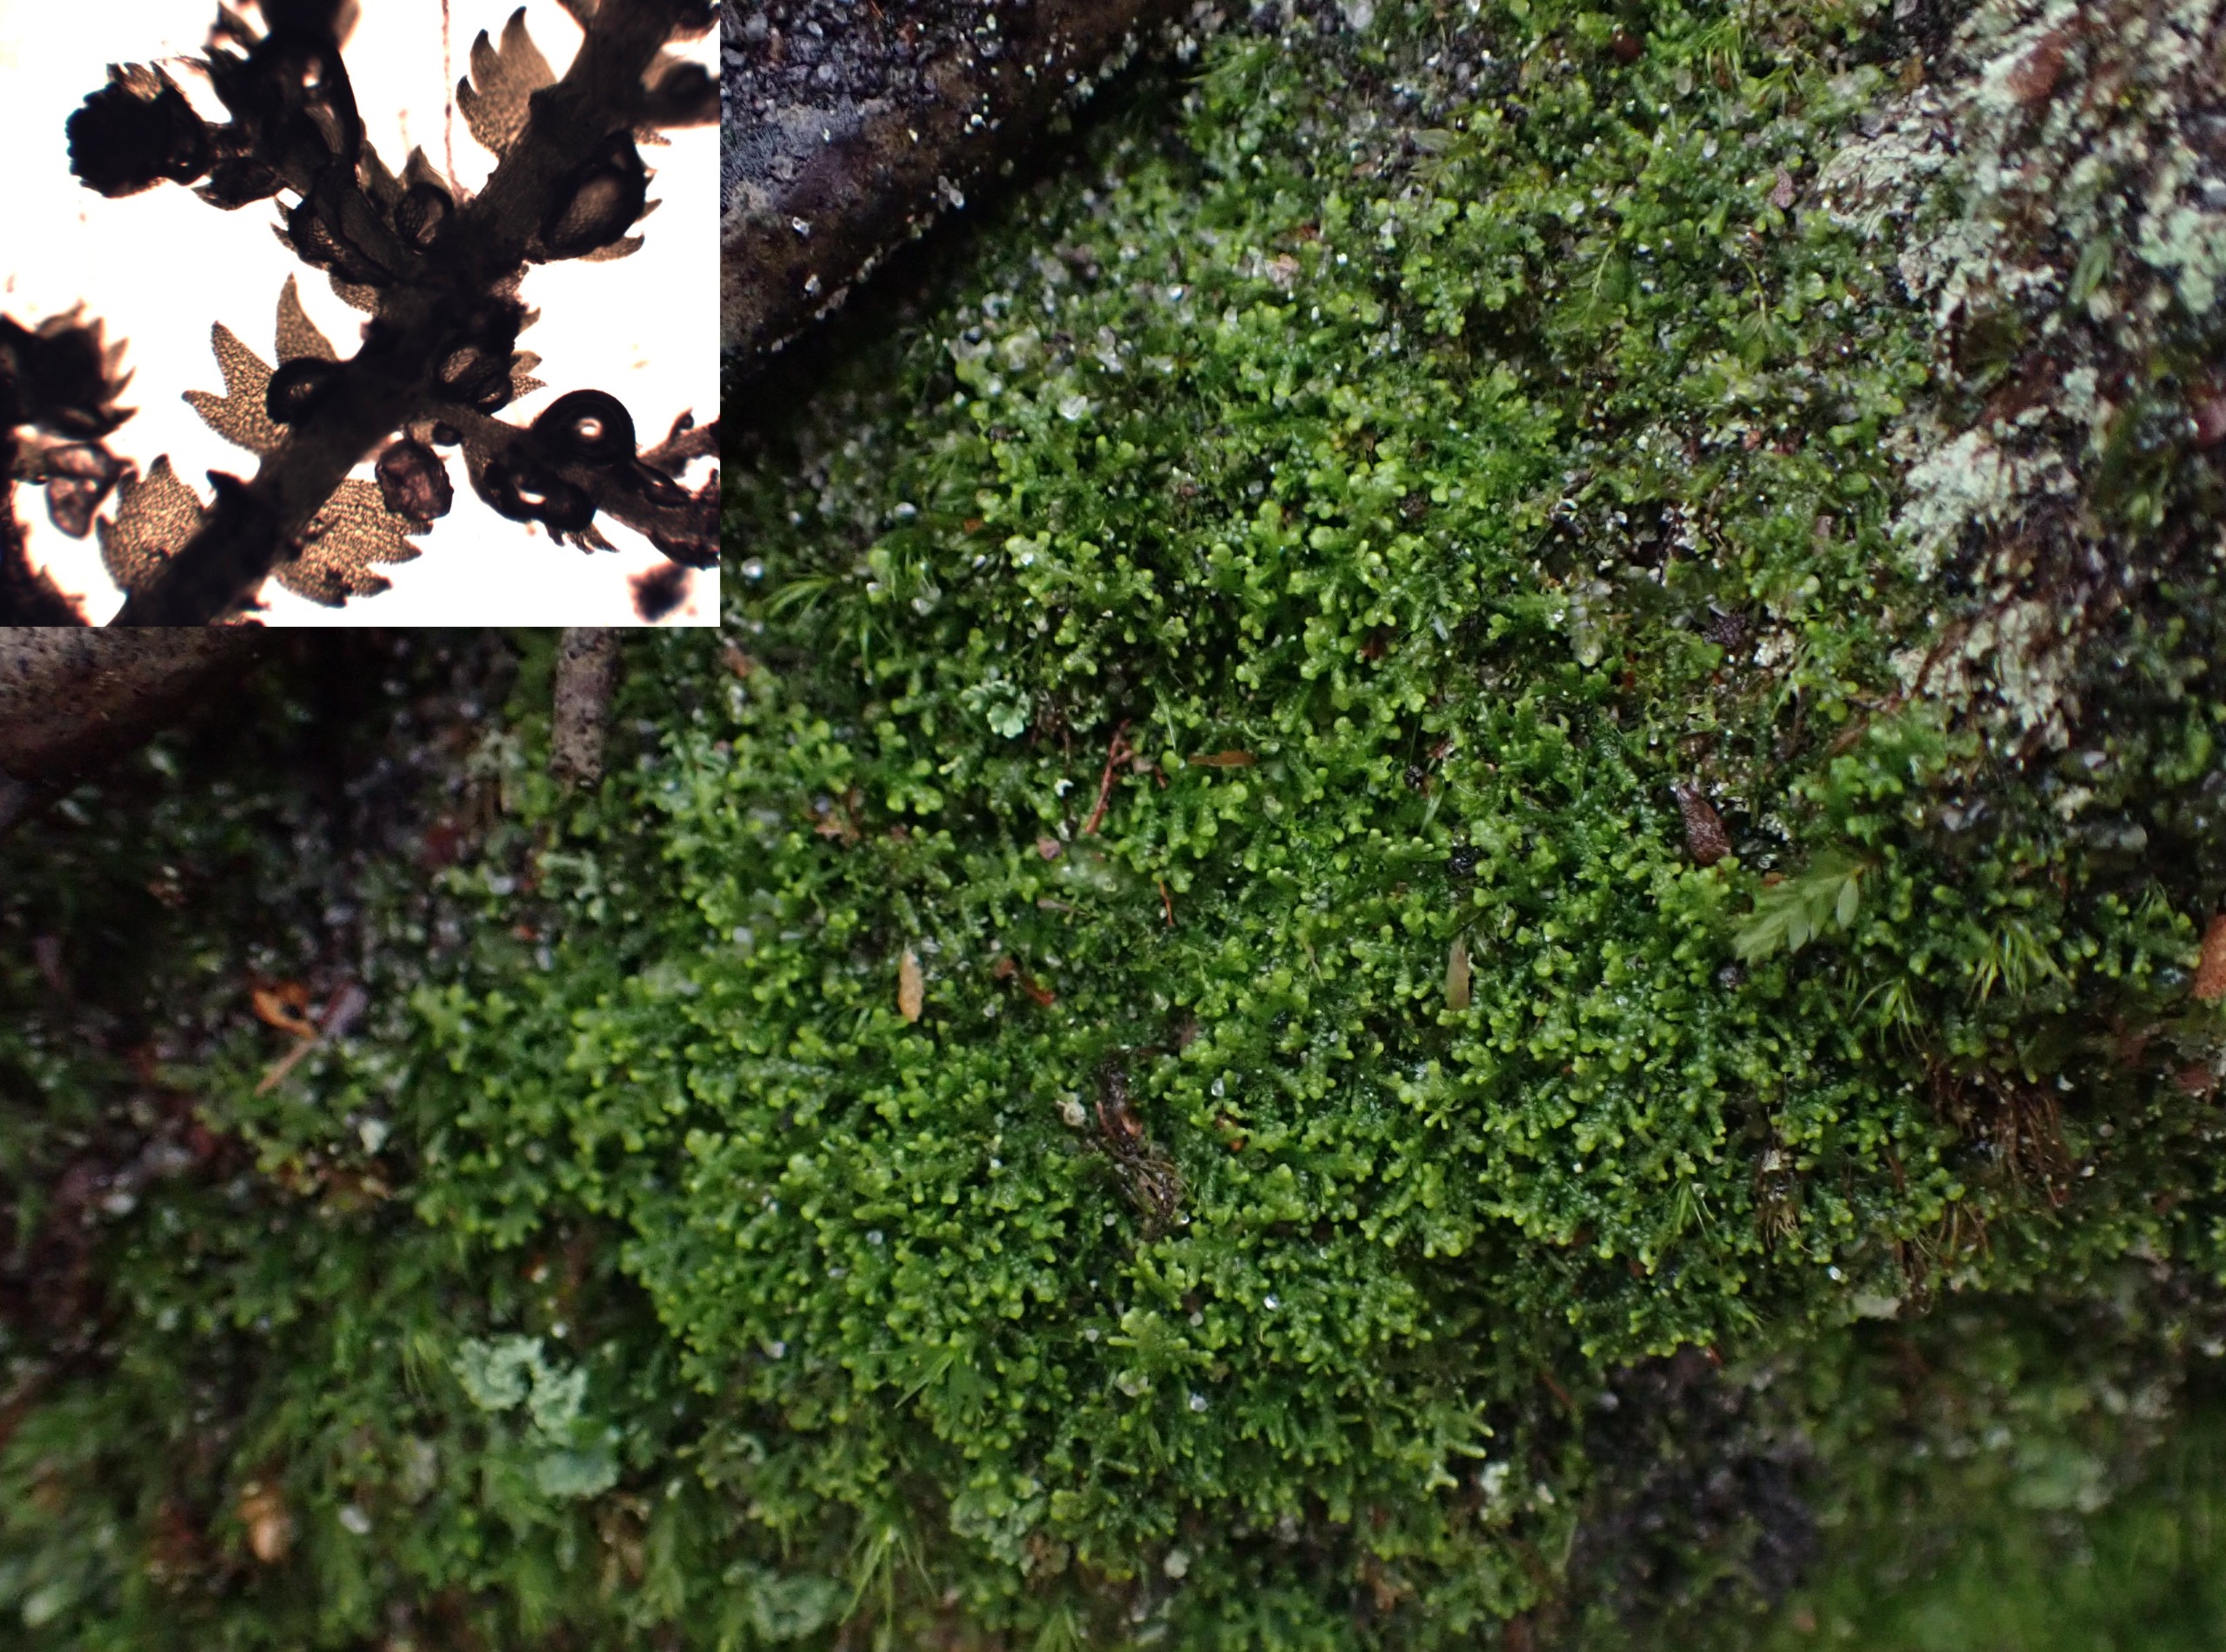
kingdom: Plantae
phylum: Marchantiophyta
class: Jungermanniopsida
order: Jungermanniales
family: Lepidoziaceae
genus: Lepidozia
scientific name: Lepidozia reptans
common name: Krybende fingermos
